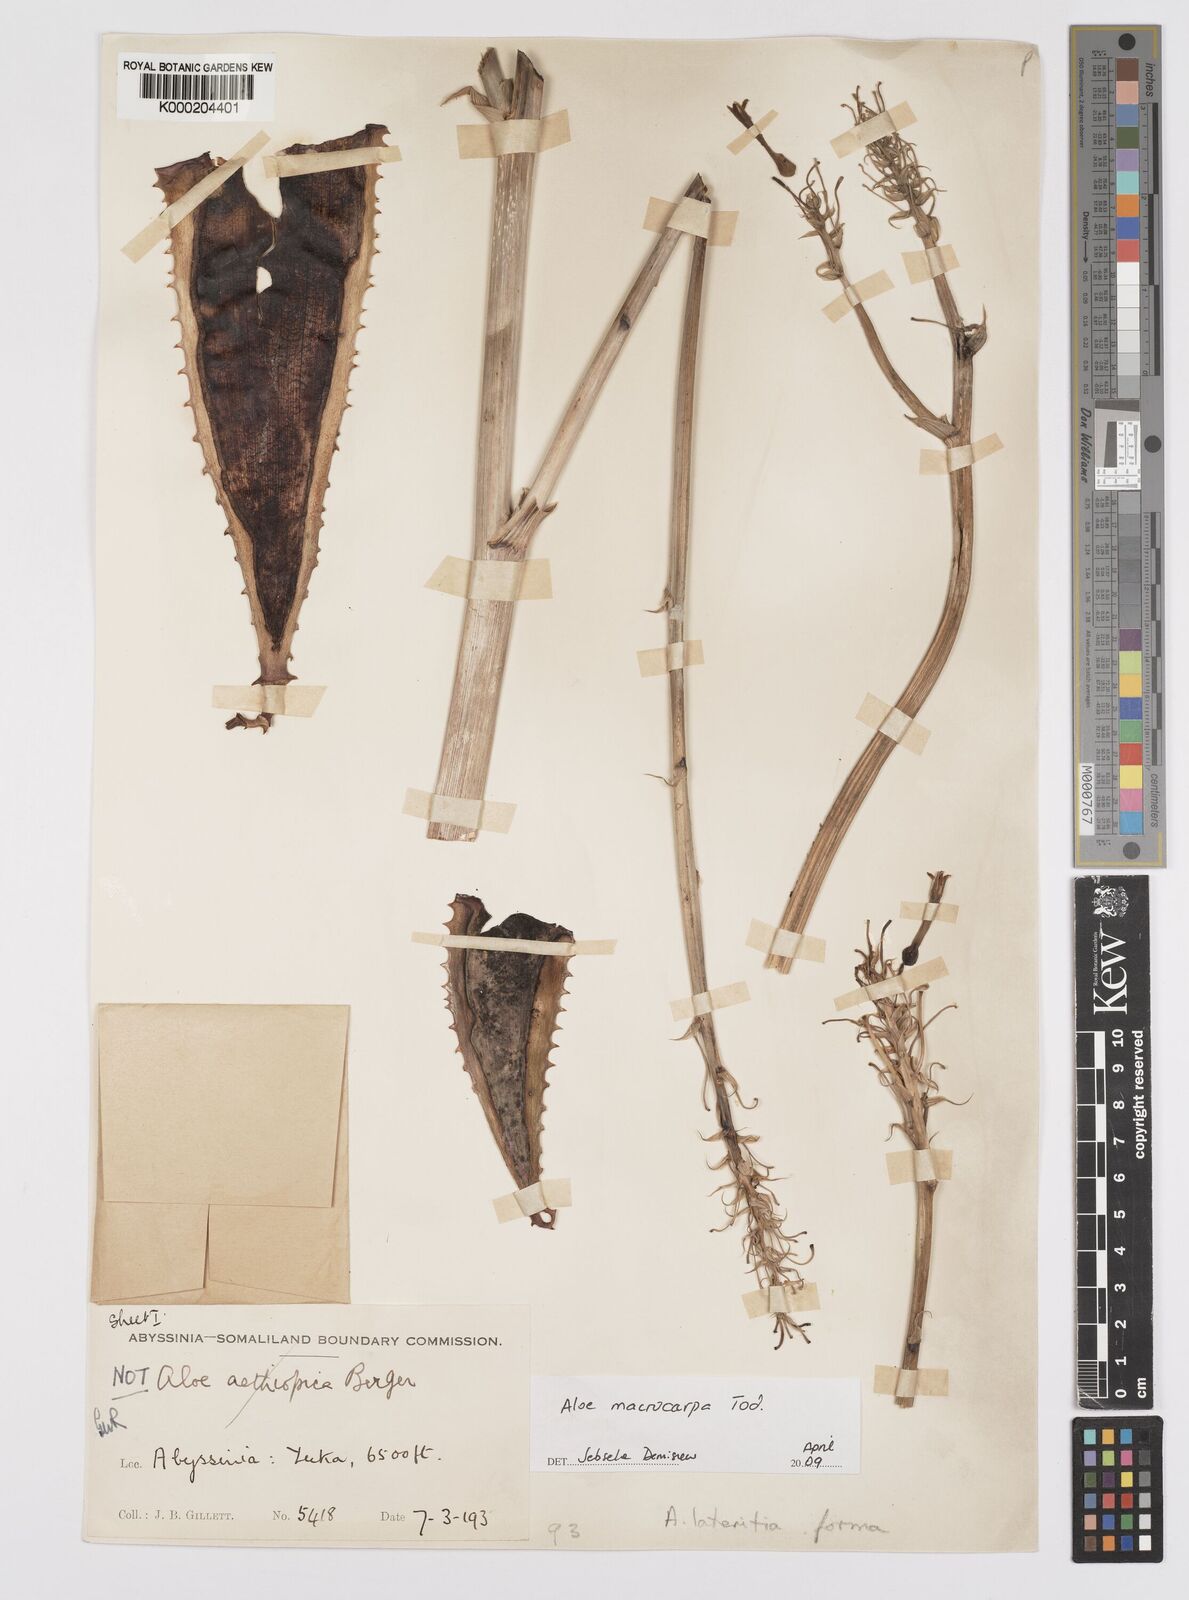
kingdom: Plantae
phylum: Tracheophyta
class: Liliopsida
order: Asparagales
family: Asphodelaceae
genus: Aloe
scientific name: Aloe macrocarpa
